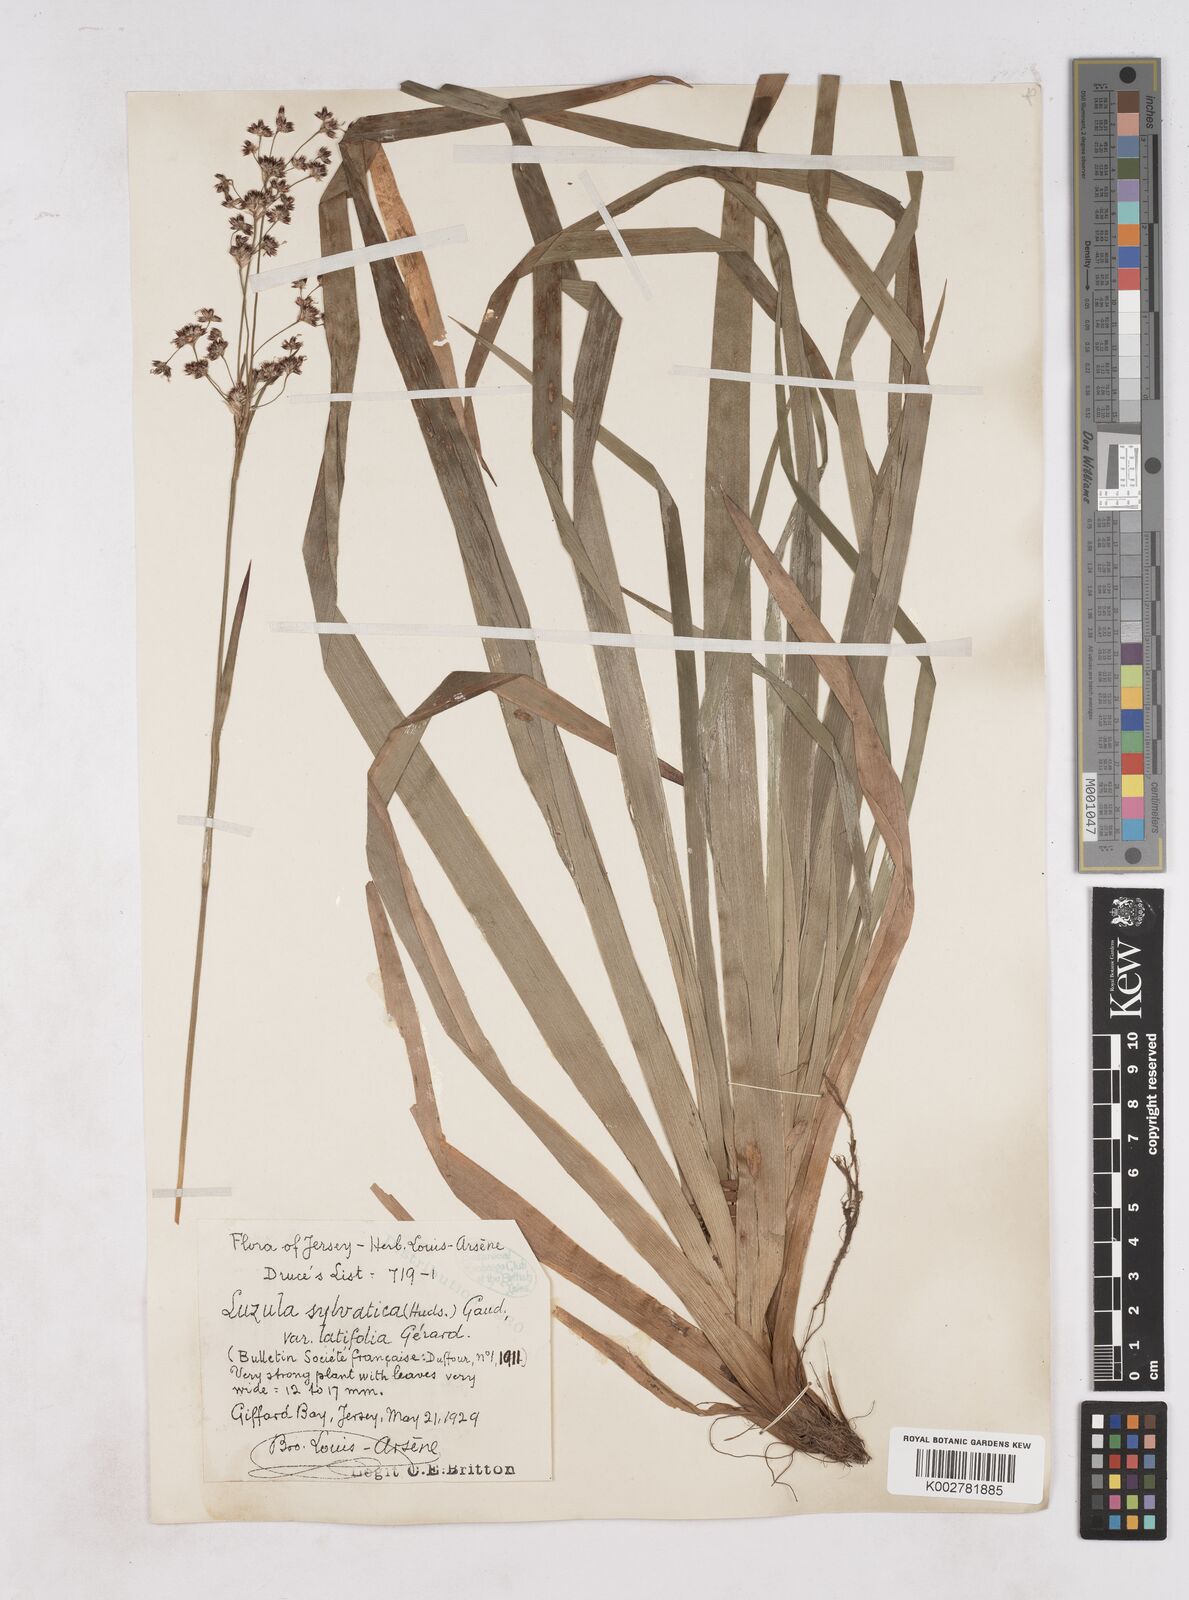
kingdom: Plantae
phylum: Tracheophyta
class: Liliopsida
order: Poales
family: Juncaceae
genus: Luzula
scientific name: Luzula sylvatica
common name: Great wood-rush
